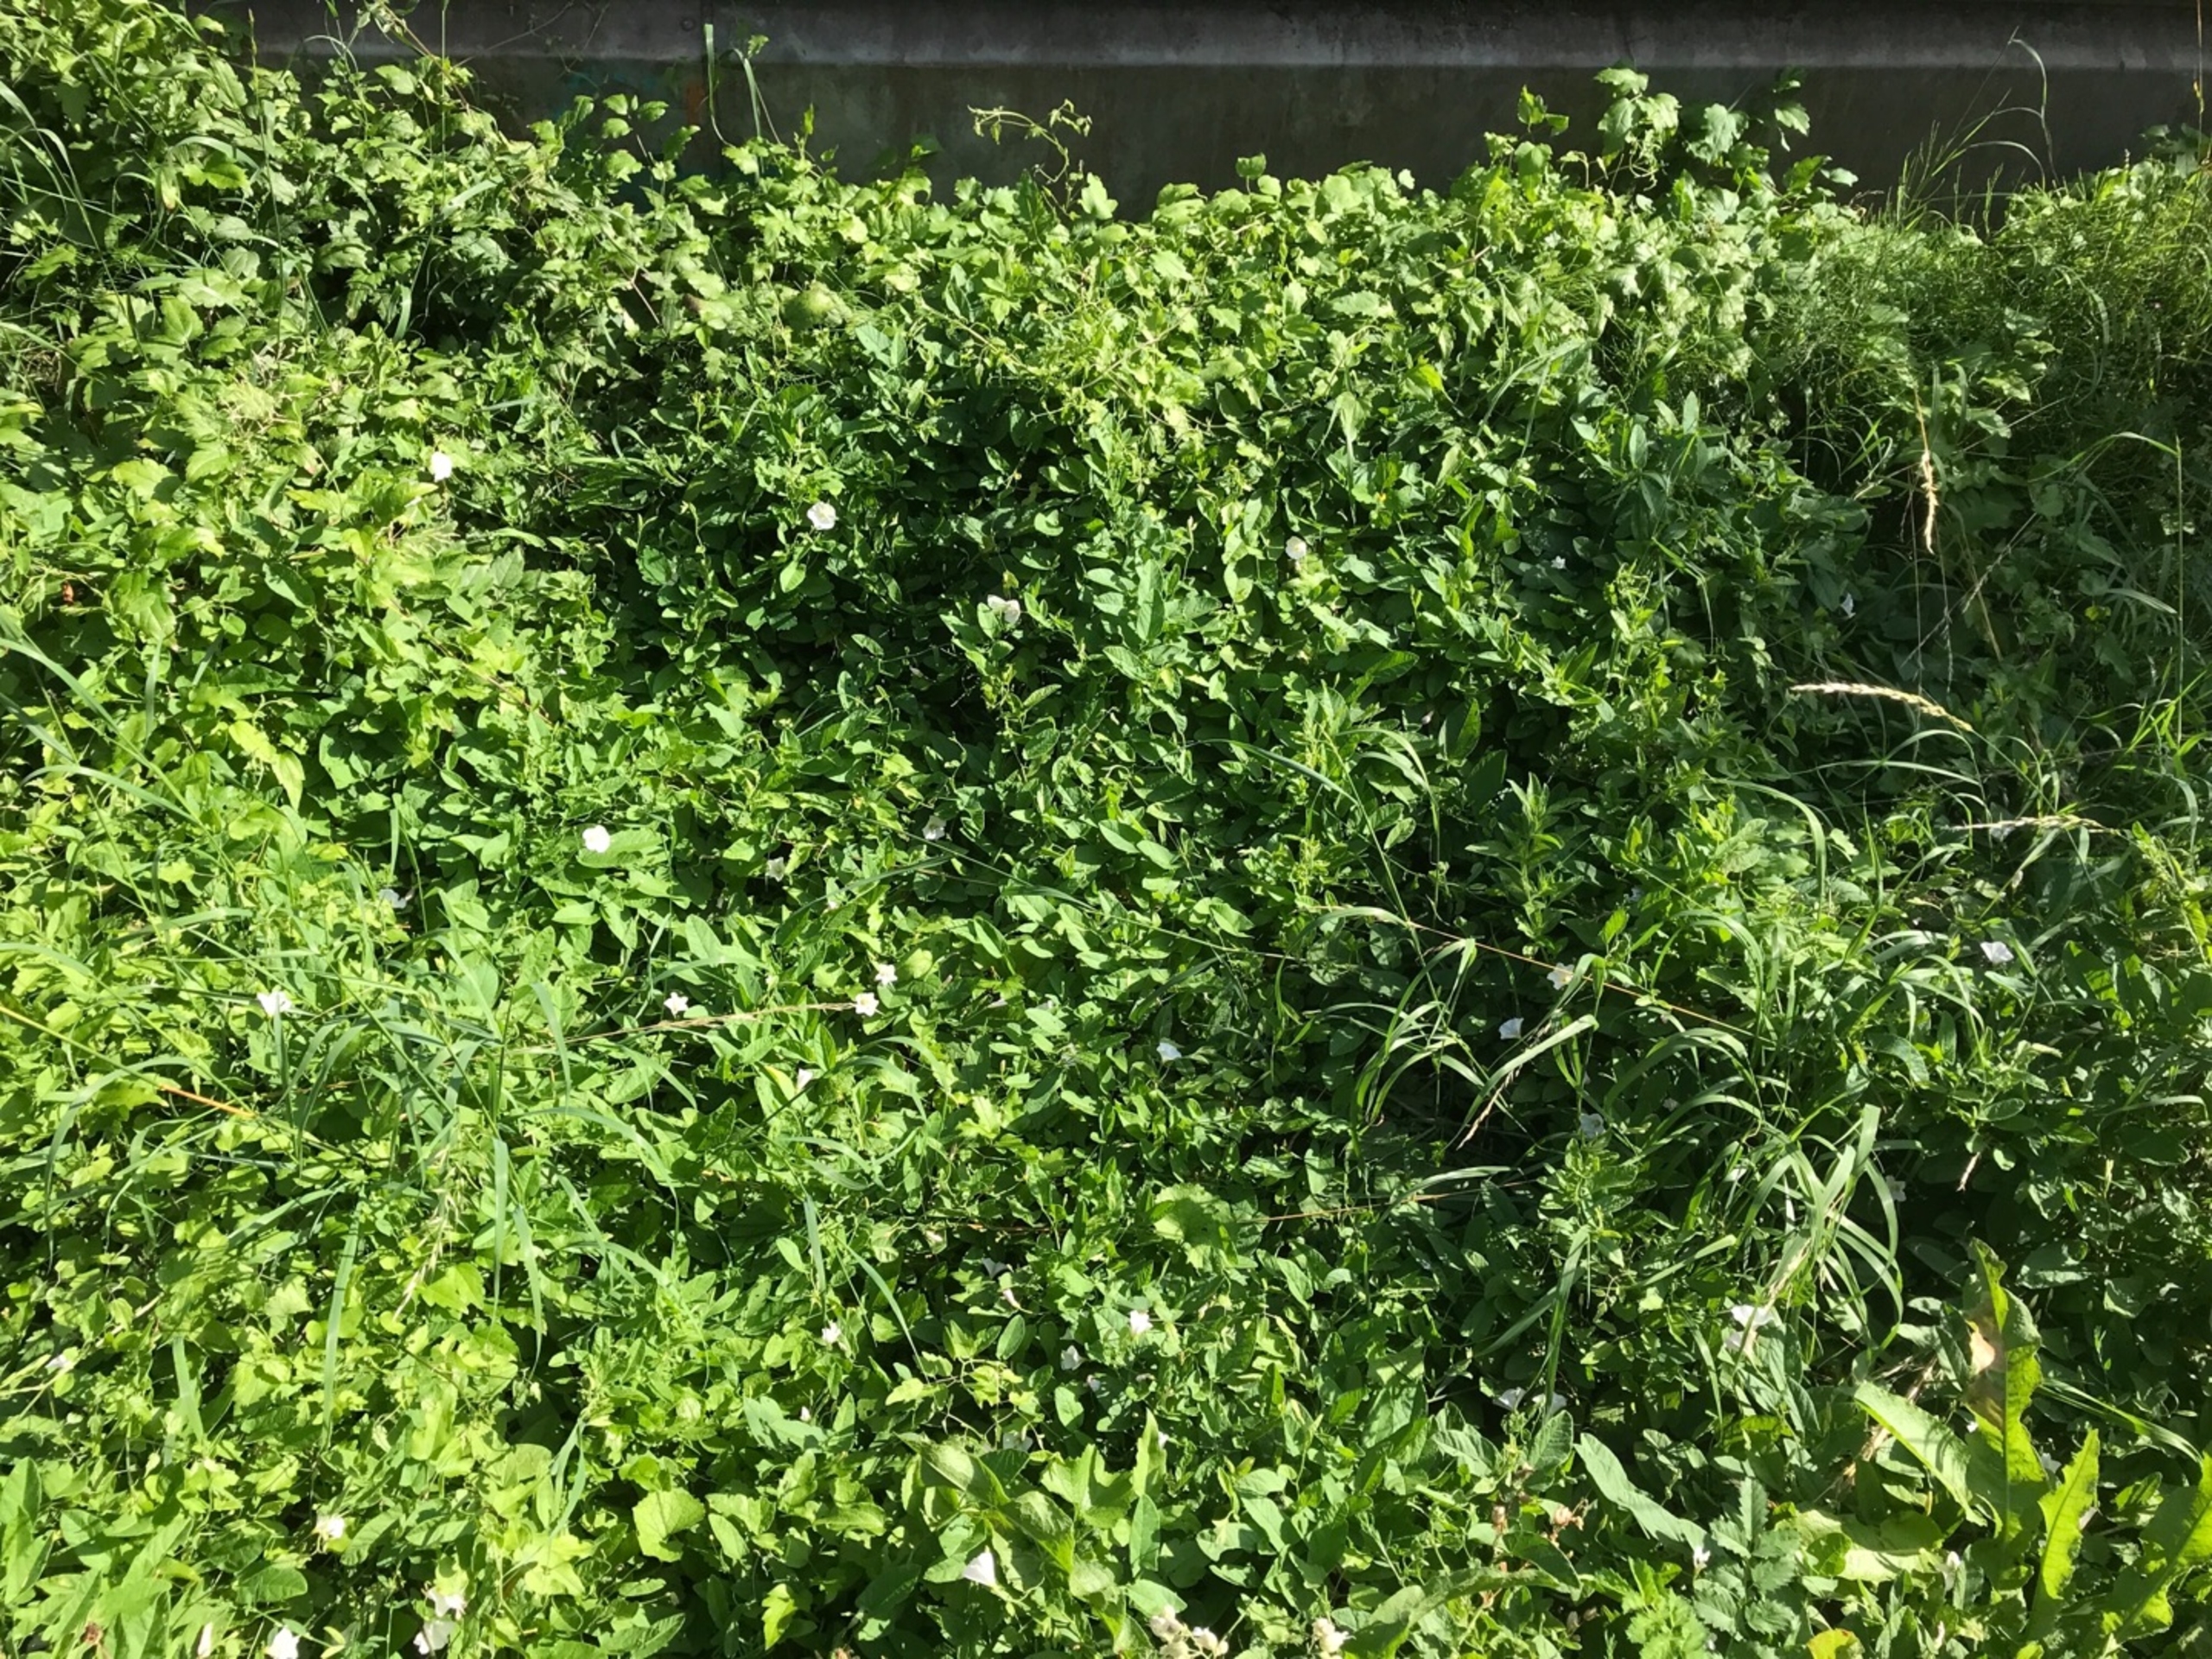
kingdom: Animalia
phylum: Arthropoda
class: Insecta
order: Lepidoptera
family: Pieridae
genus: Pieris
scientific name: Pieris rapae
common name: Lille kålsommerfugl
